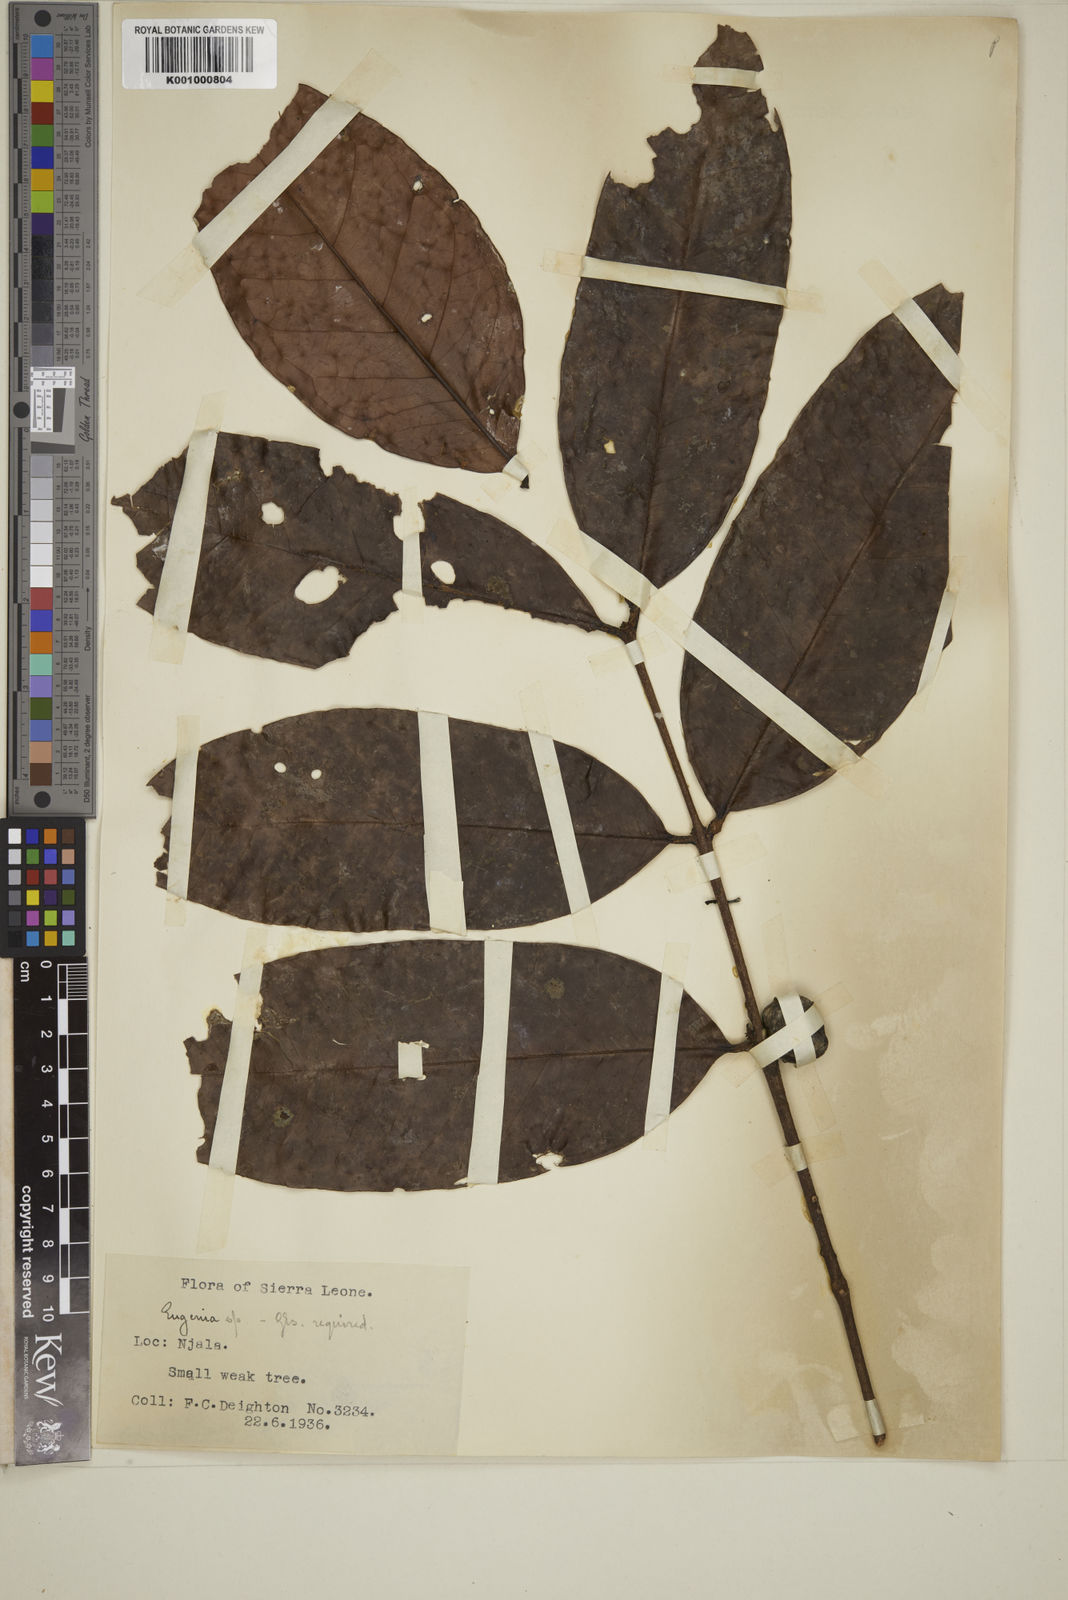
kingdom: Plantae
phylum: Tracheophyta
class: Magnoliopsida
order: Myrtales
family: Myrtaceae
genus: Eugenia
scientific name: Eugenia
